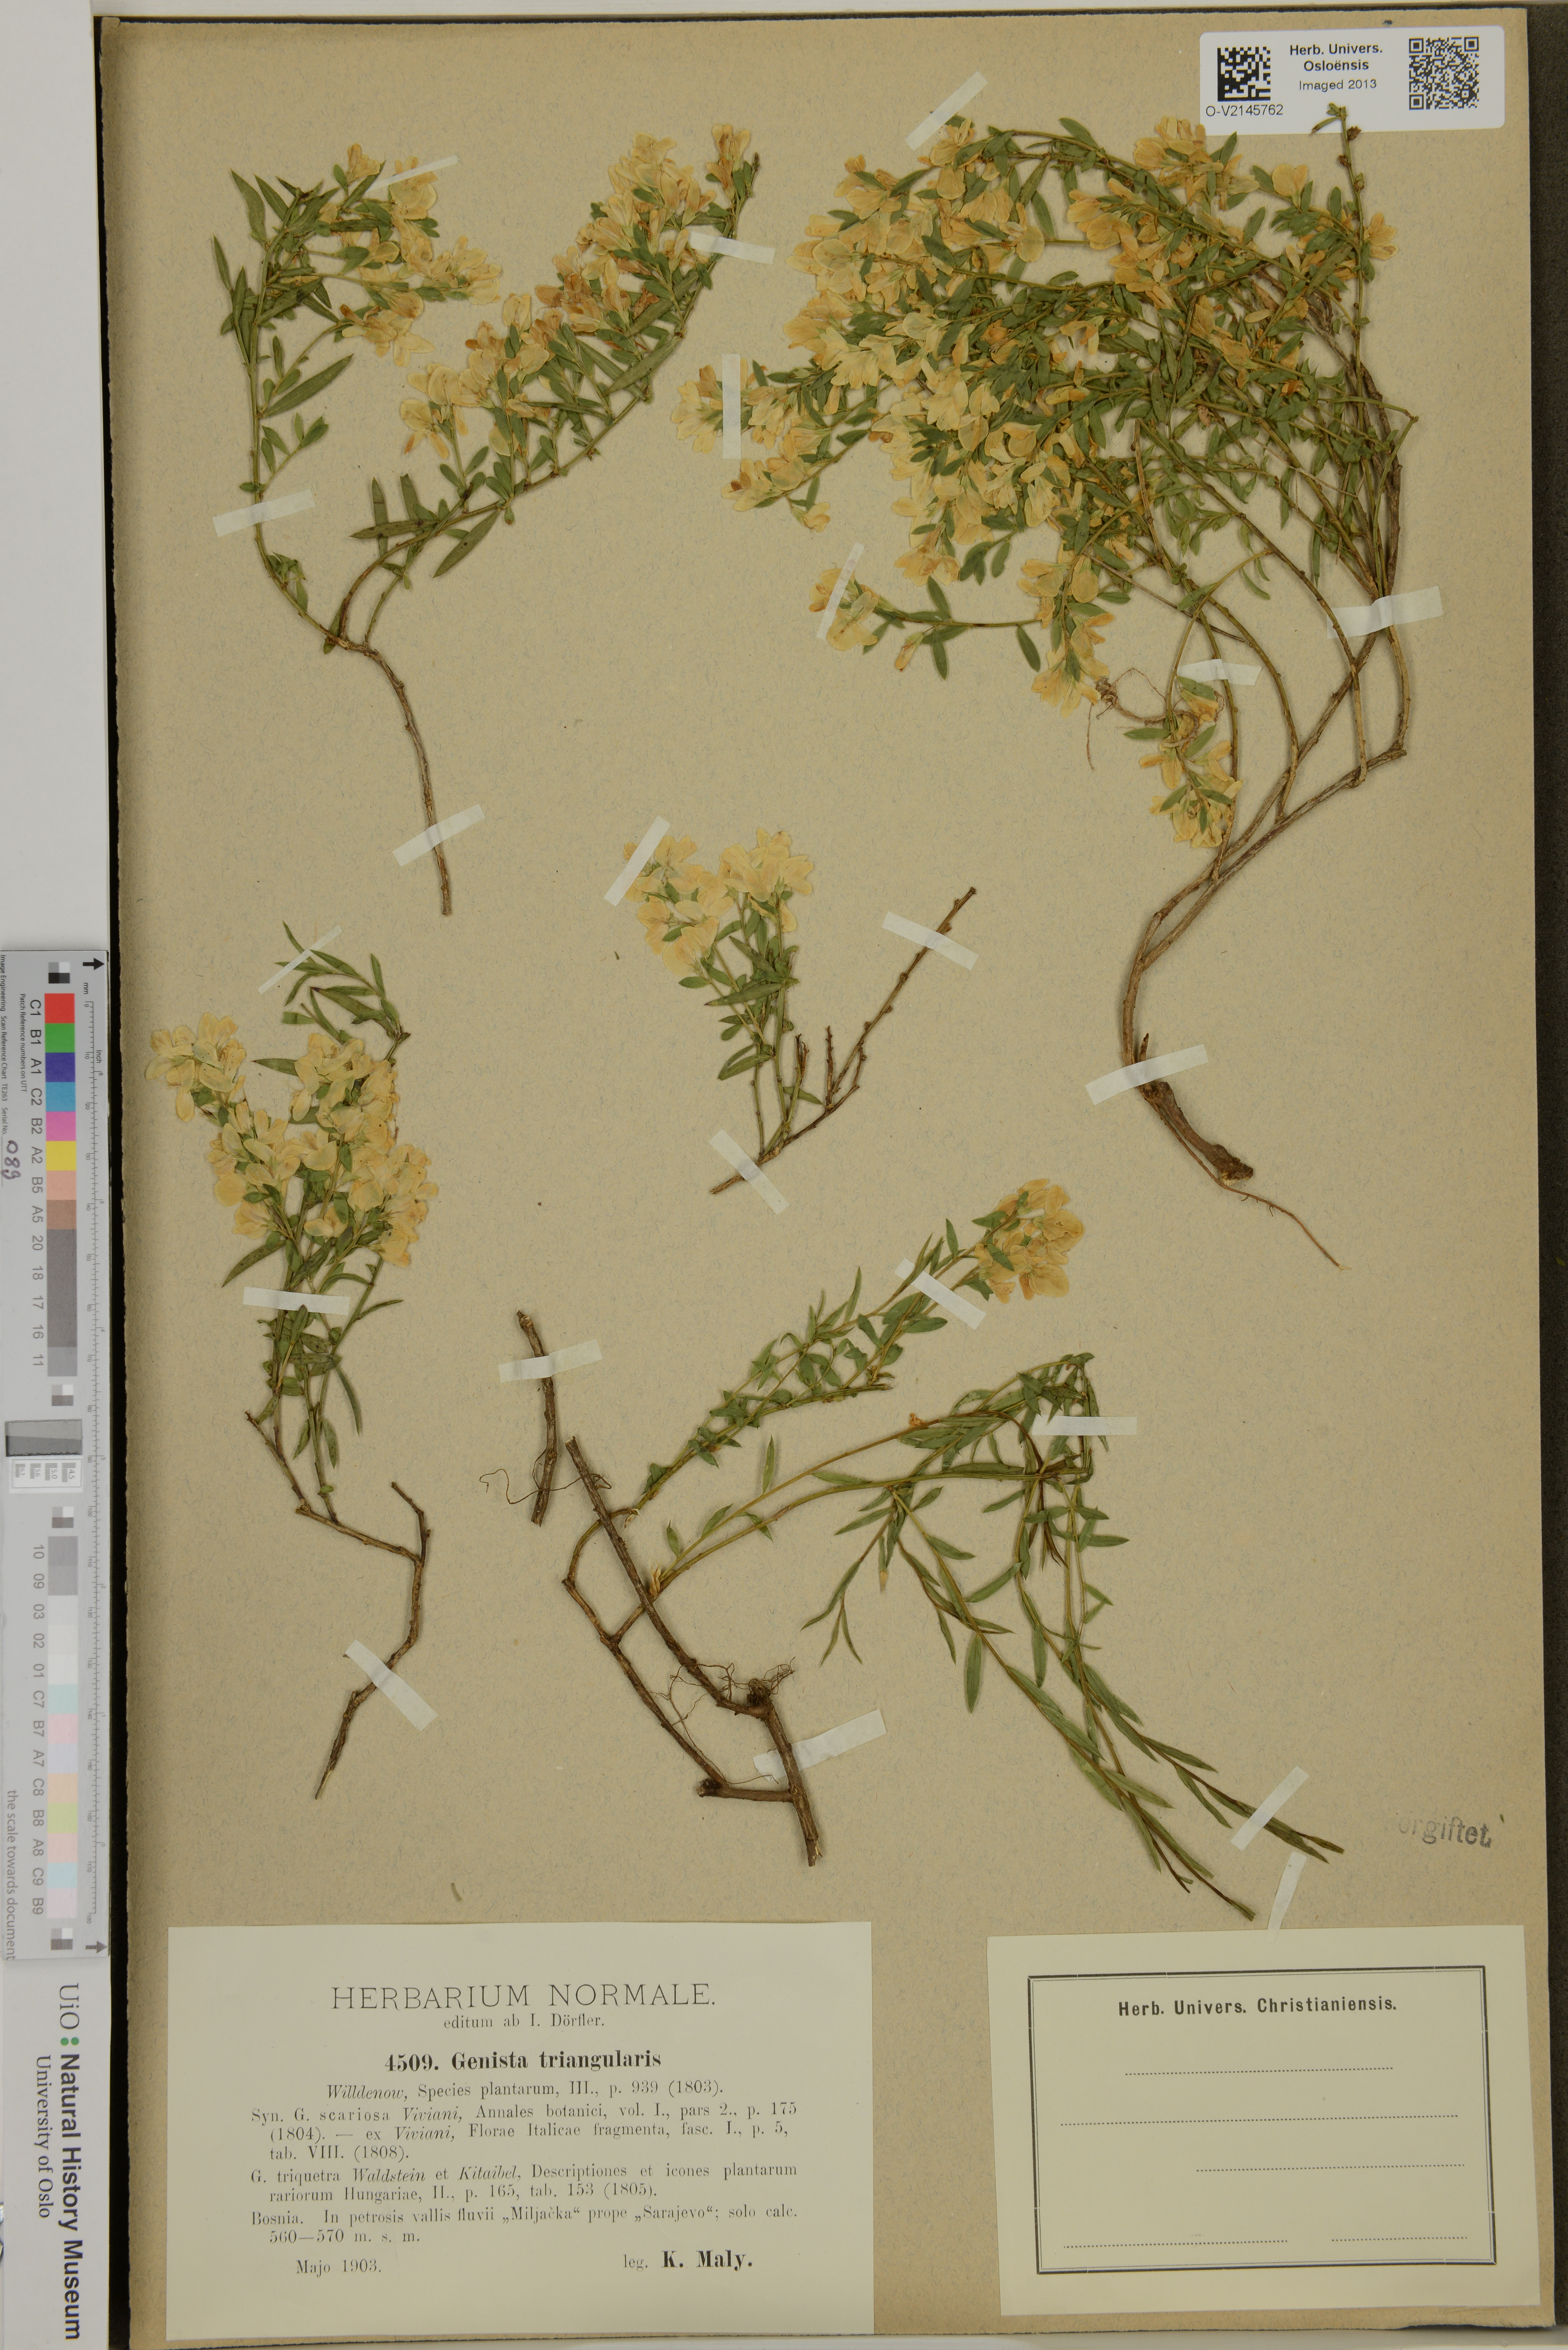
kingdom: Plantae
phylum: Tracheophyta
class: Magnoliopsida
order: Fabales
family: Fabaceae
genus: Genista
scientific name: Genista triangularis
